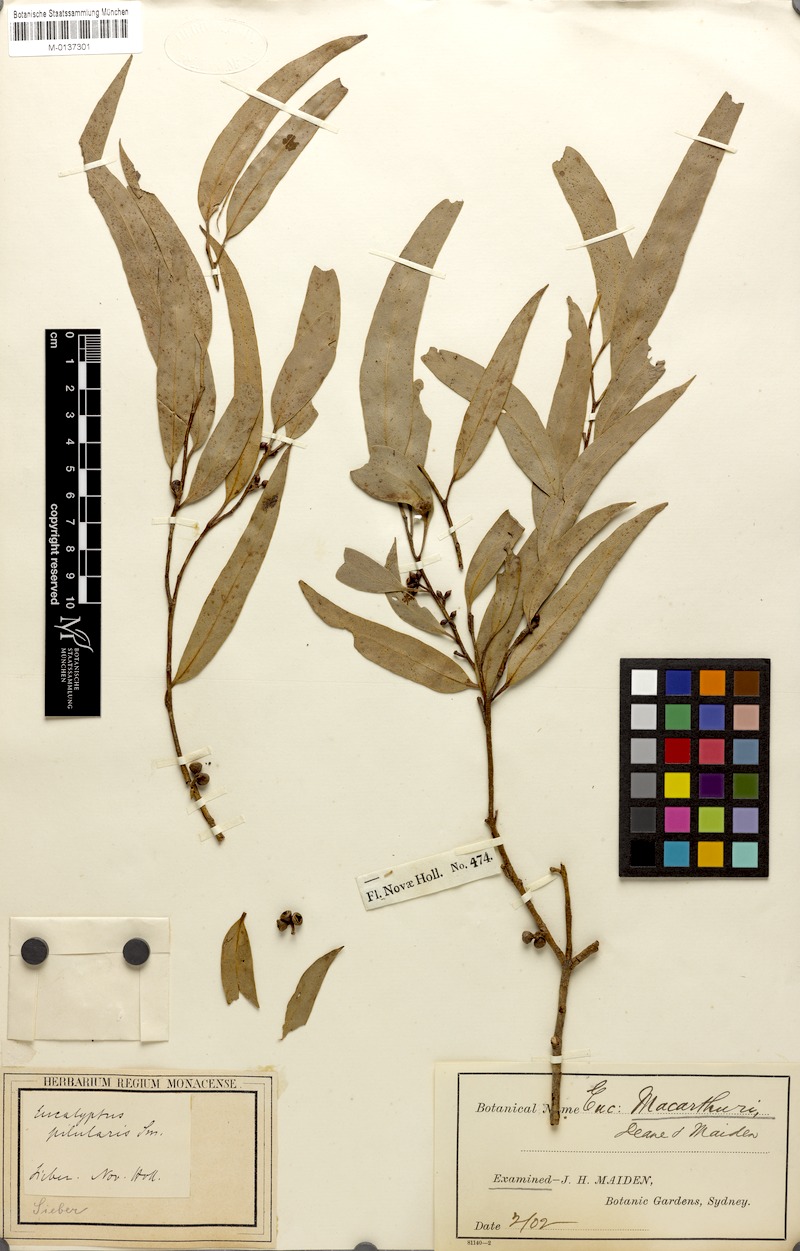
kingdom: Plantae
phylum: Tracheophyta
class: Magnoliopsida
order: Myrtales
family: Myrtaceae
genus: Eucalyptus
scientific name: Eucalyptus macarthurii
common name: Camden-woollybutt
